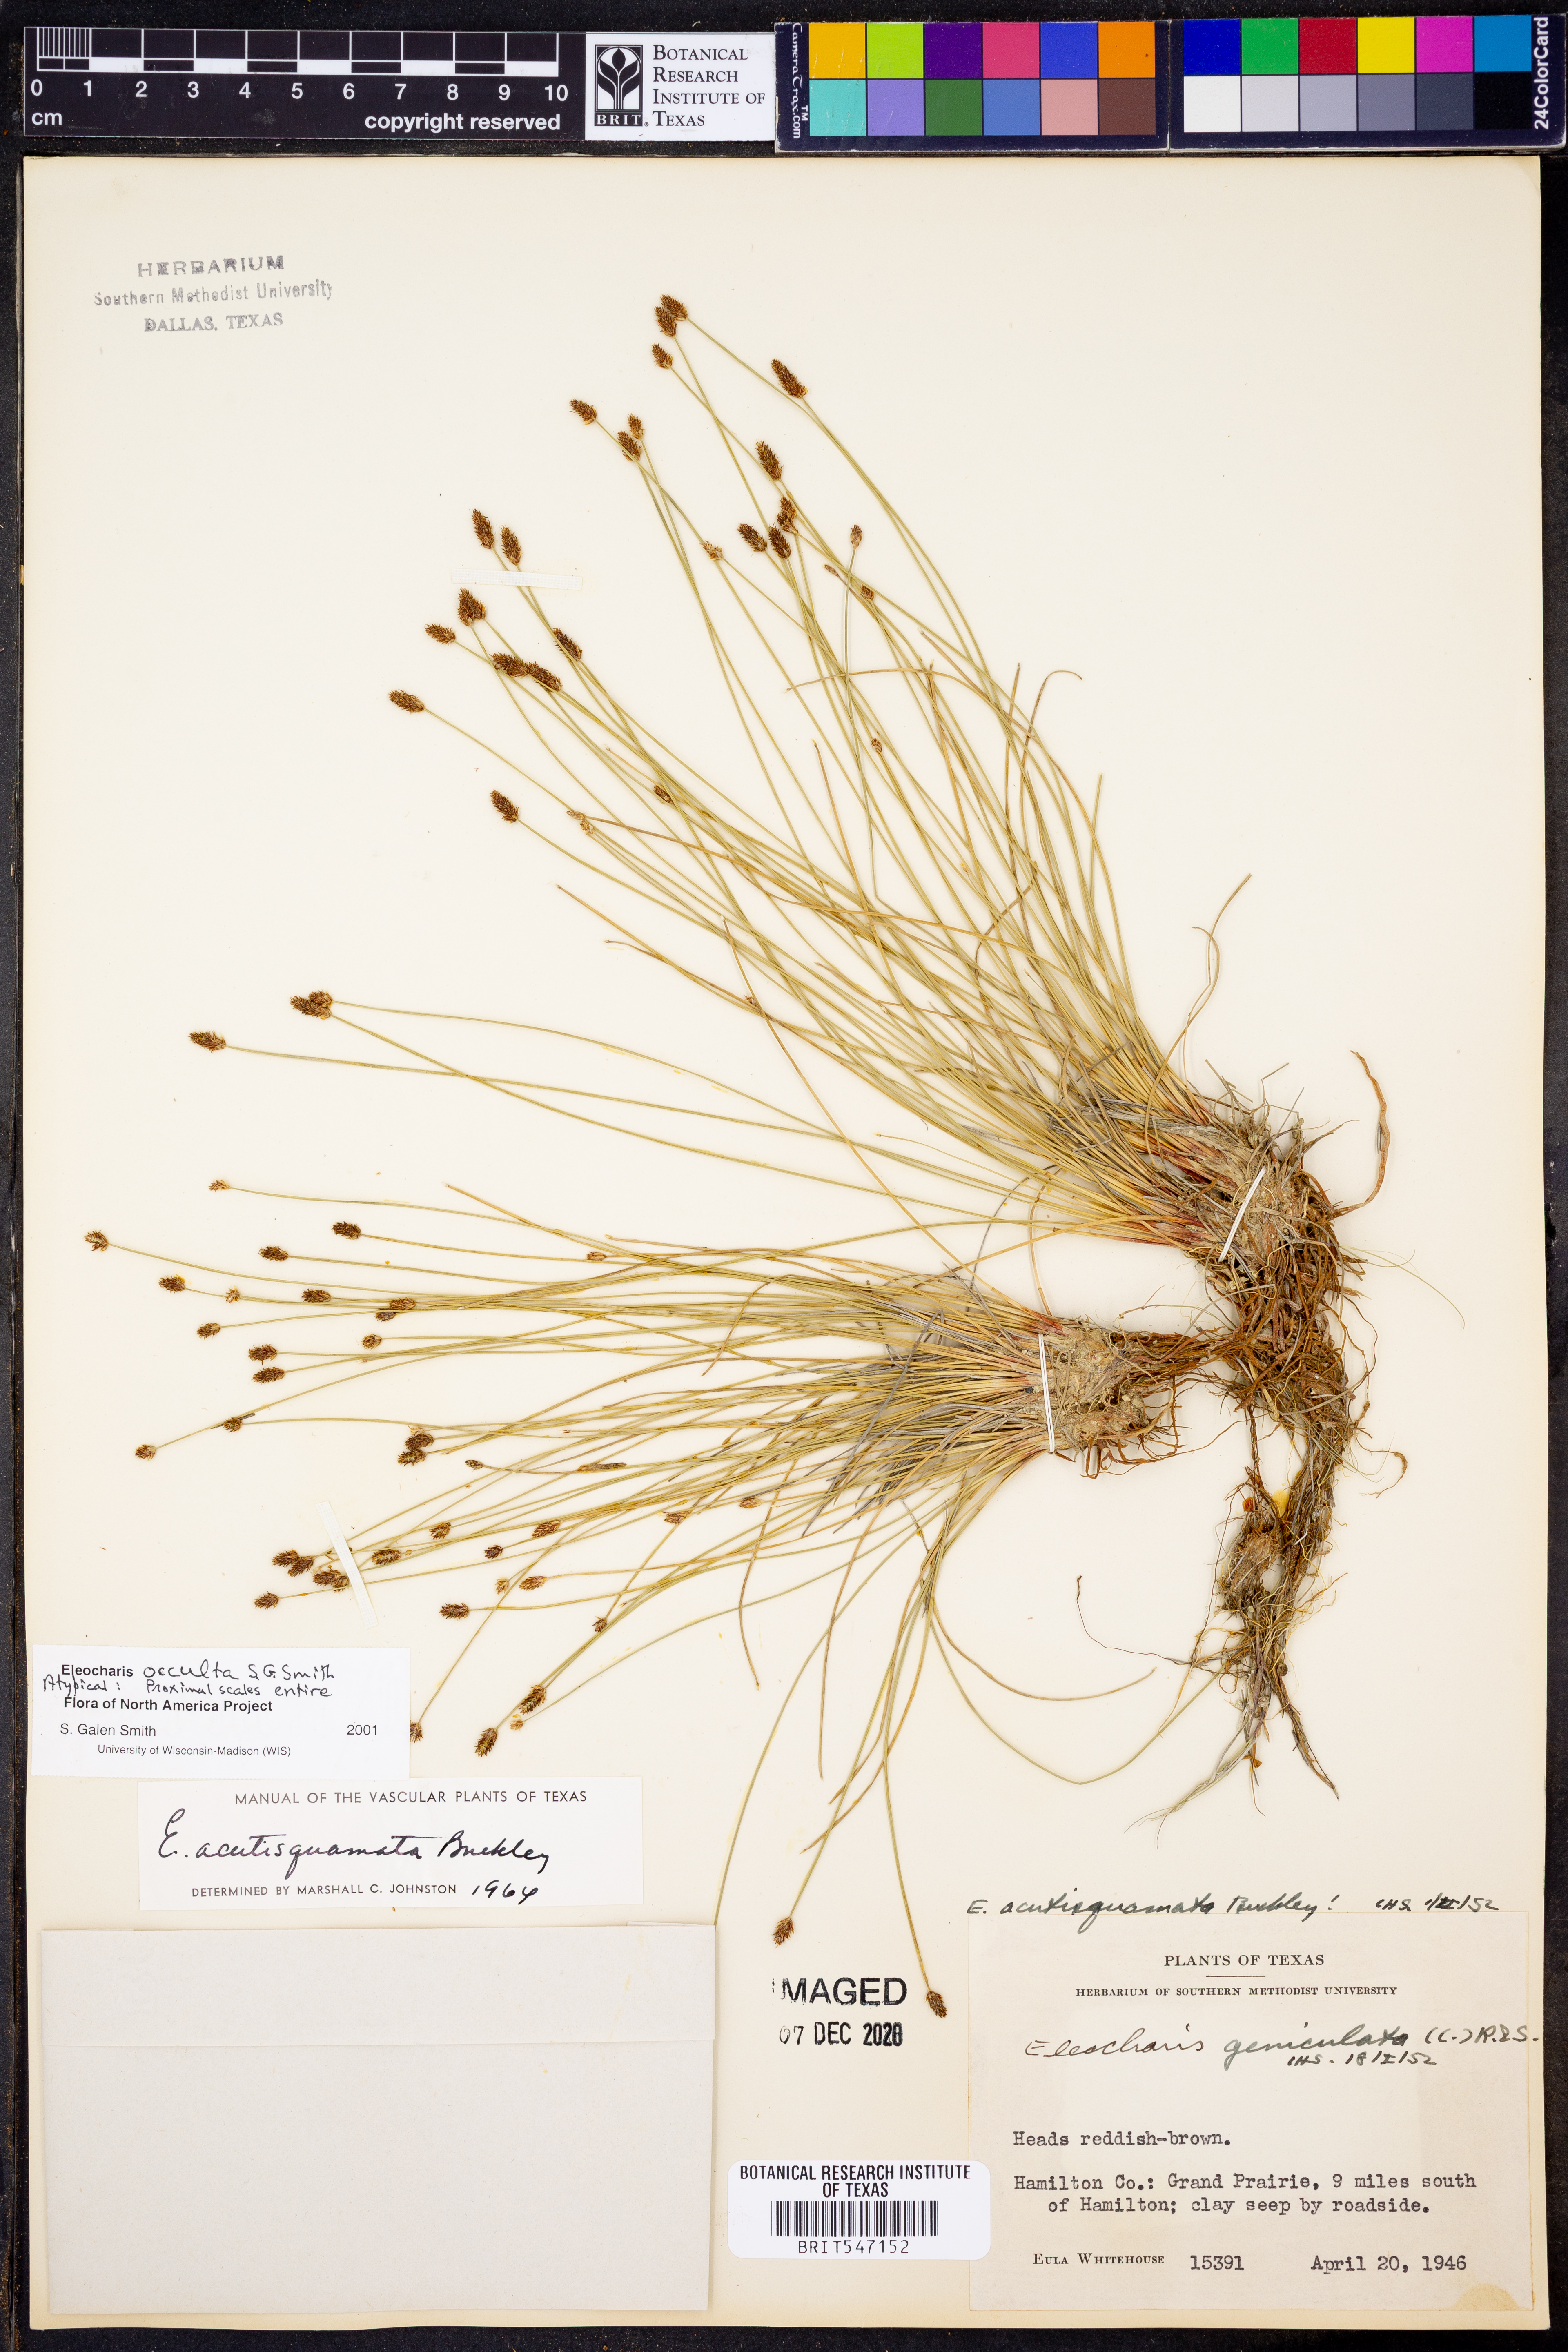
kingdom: Plantae
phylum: Tracheophyta
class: Liliopsida
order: Poales
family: Cyperaceae
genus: Eleocharis
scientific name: Eleocharis occulta
